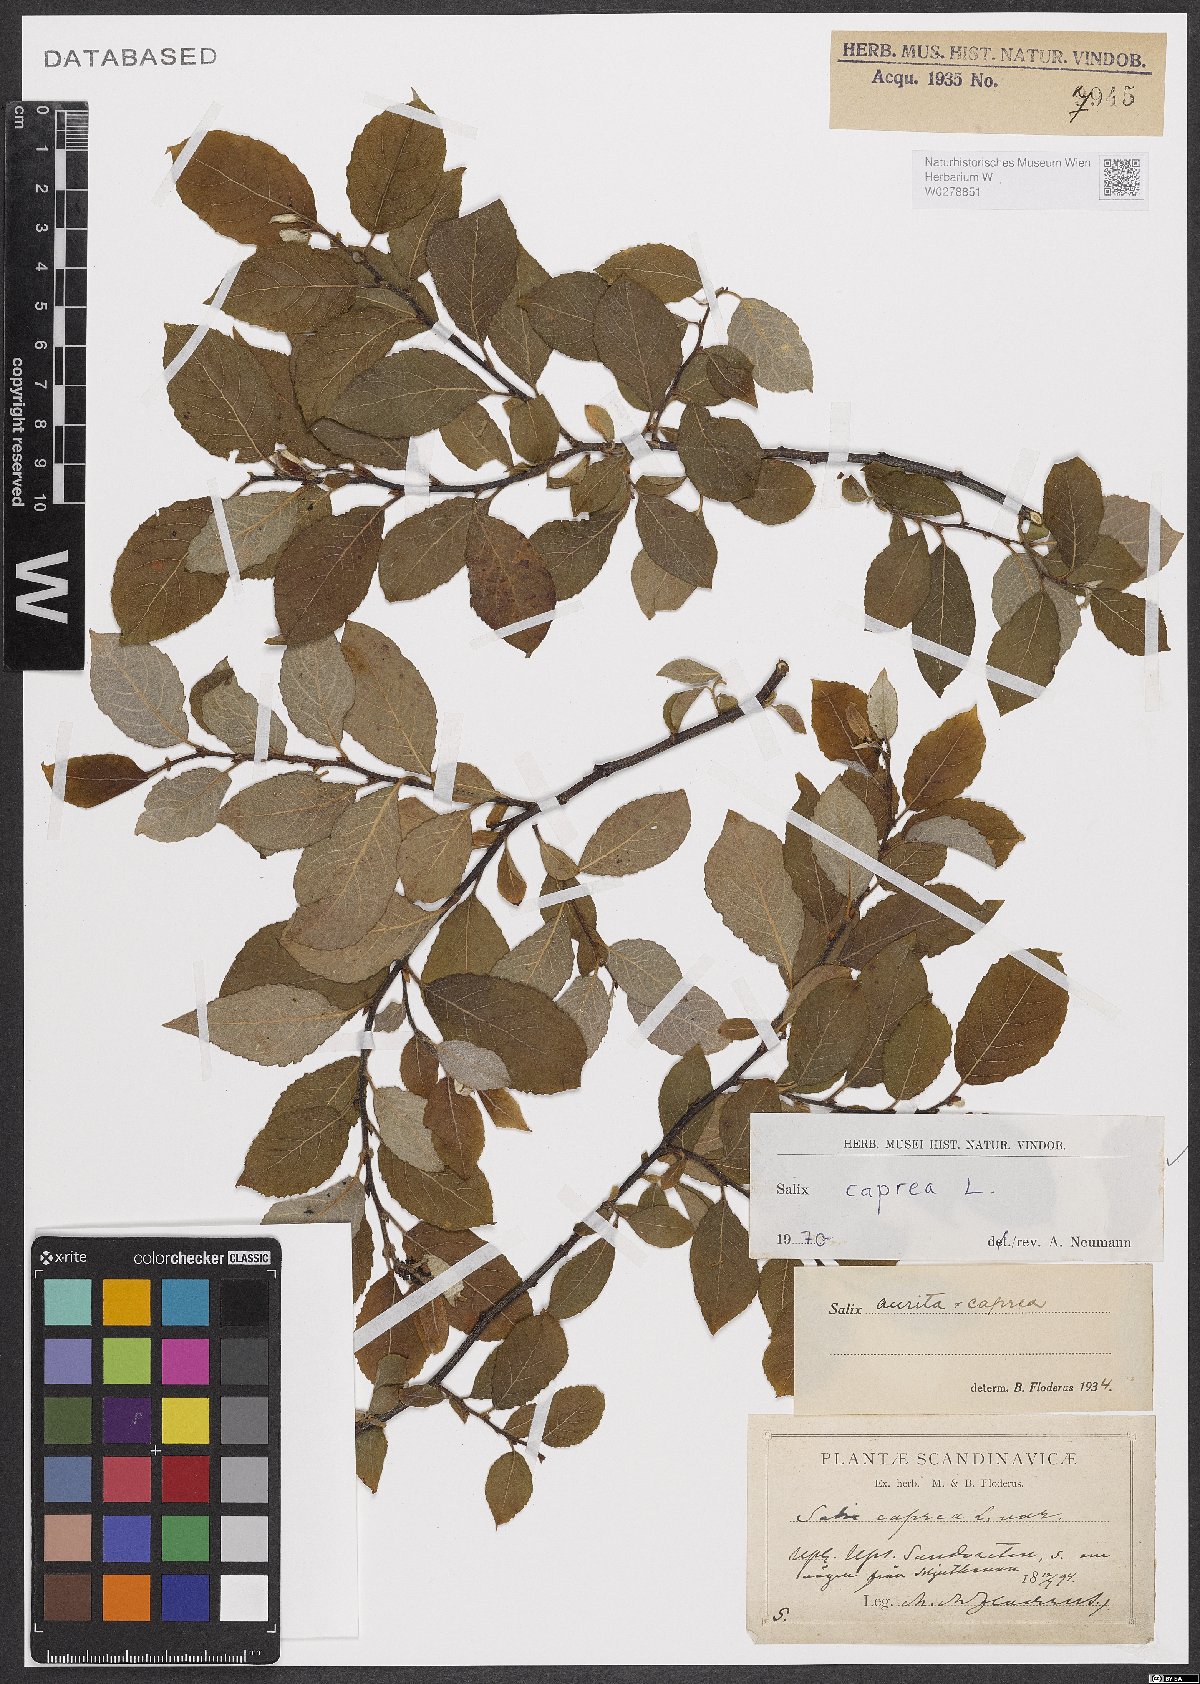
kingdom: Plantae
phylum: Tracheophyta
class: Magnoliopsida
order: Malpighiales
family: Salicaceae
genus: Salix
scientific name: Salix caprea
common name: Goat willow
